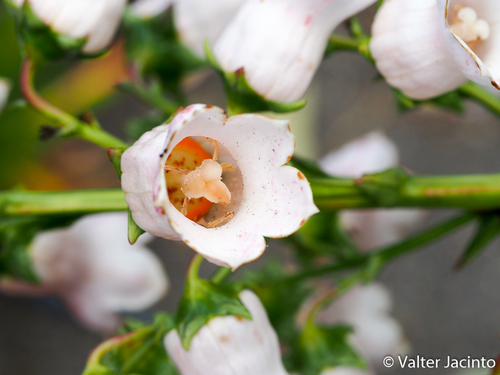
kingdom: Plantae
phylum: Tracheophyta
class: Magnoliopsida
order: Asterales
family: Campanulaceae
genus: Campanula
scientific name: Campanula vidalii
